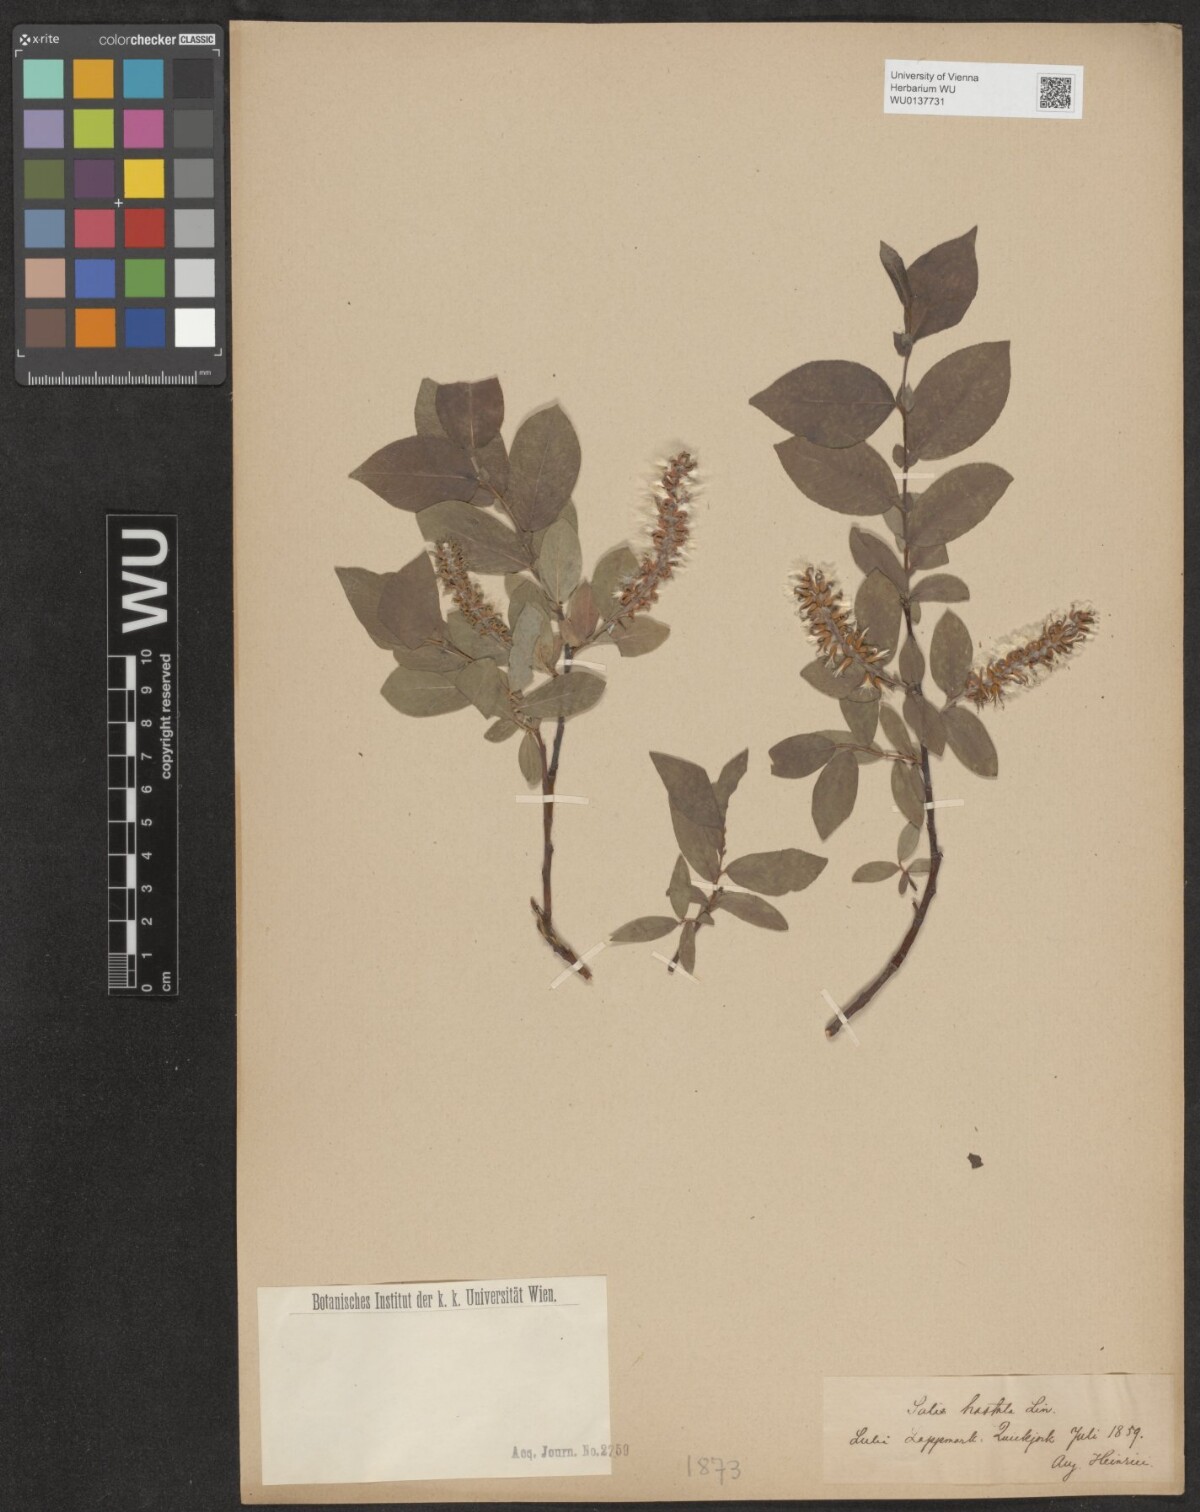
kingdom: Plantae
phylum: Tracheophyta
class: Magnoliopsida
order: Malpighiales
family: Salicaceae
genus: Salix
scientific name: Salix hastata
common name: Halberd willow
